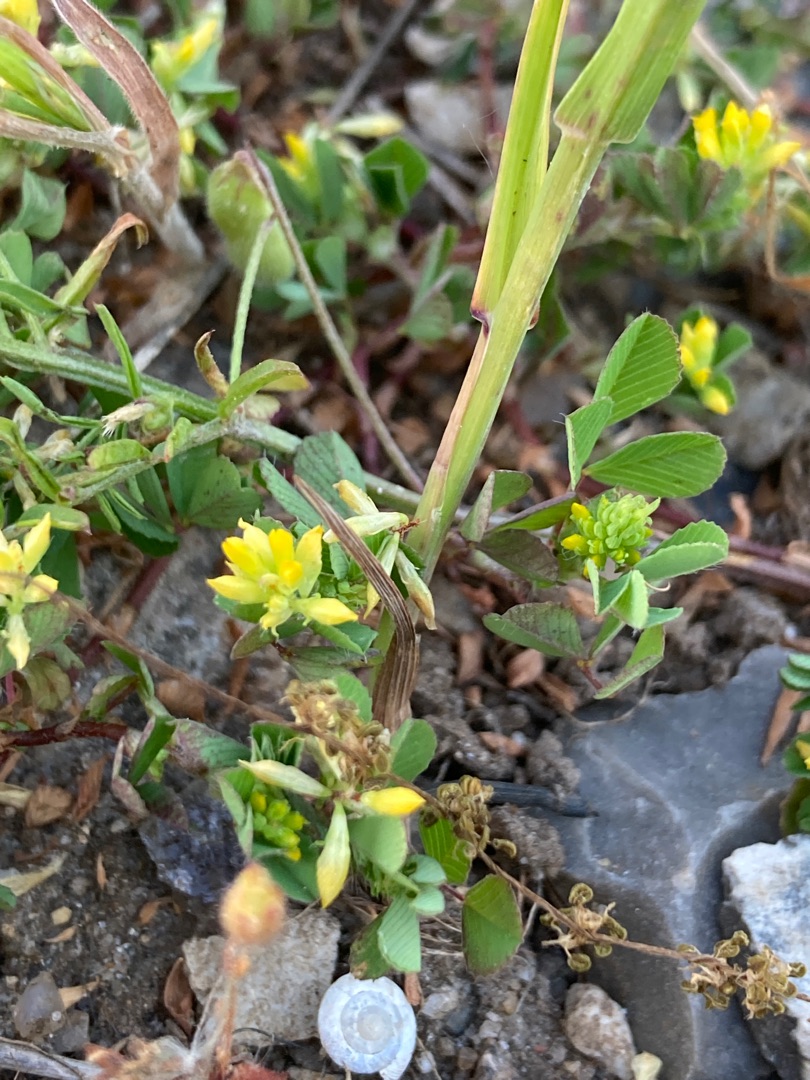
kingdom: Plantae
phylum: Tracheophyta
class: Magnoliopsida
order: Fabales
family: Fabaceae
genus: Trifolium
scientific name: Trifolium dubium
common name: Fin kløver
